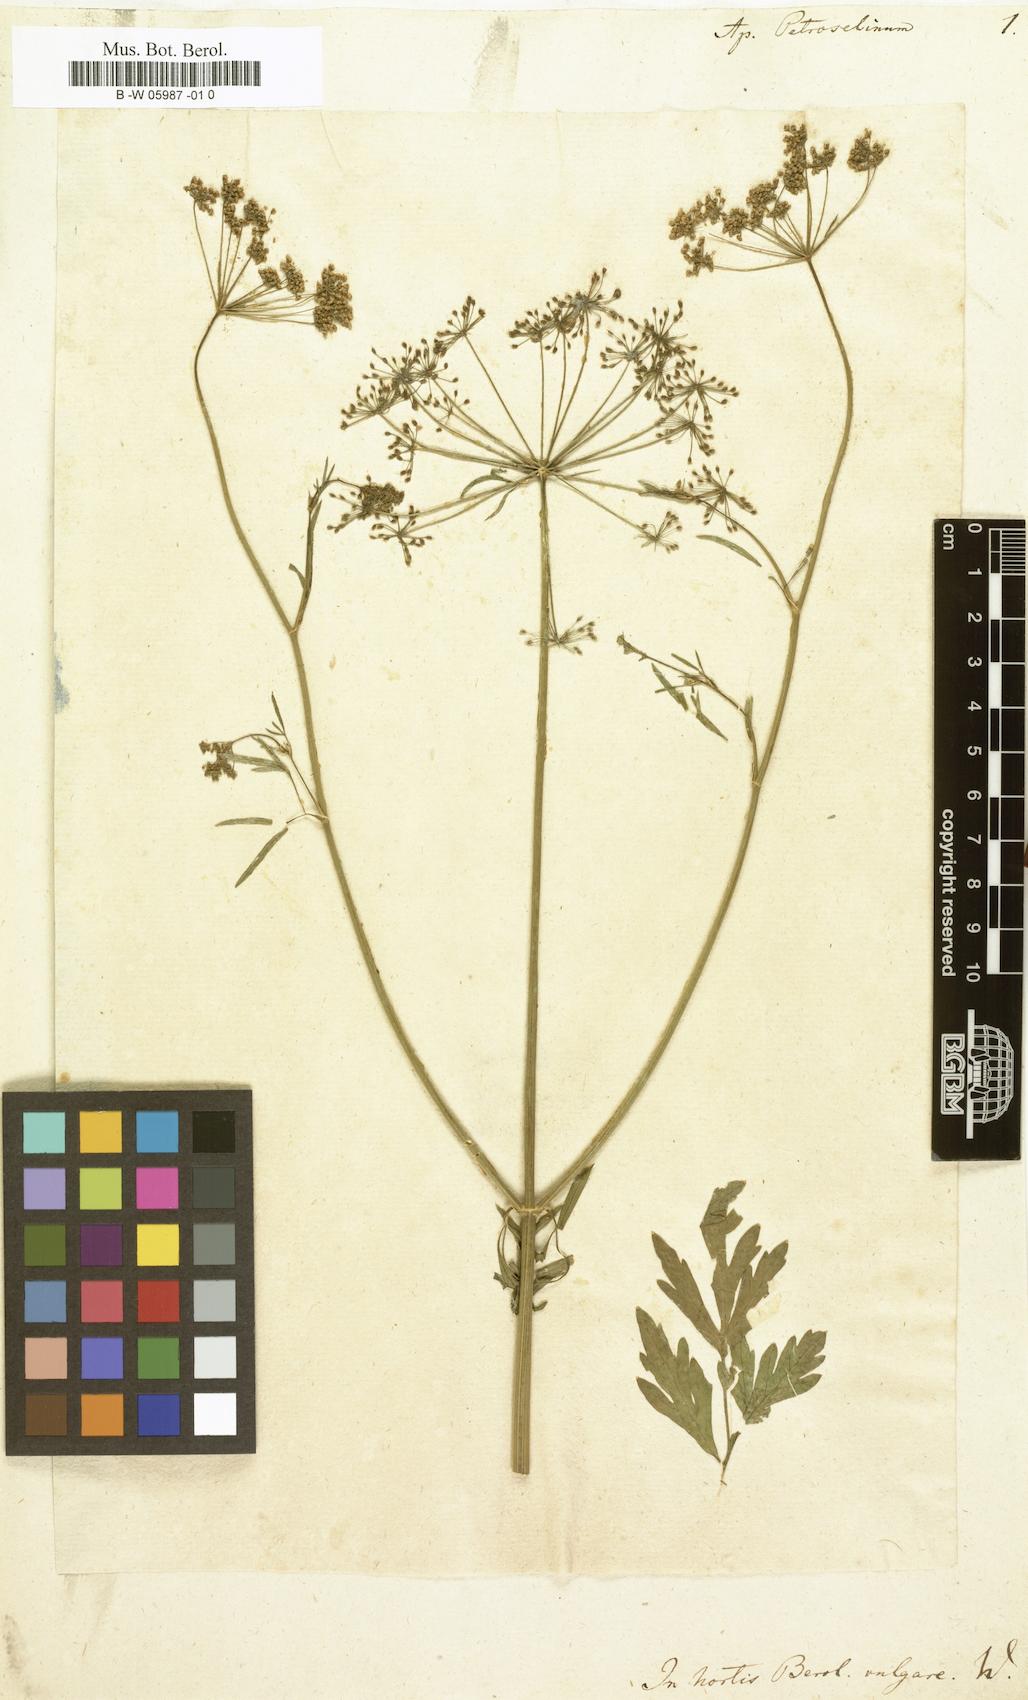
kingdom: Plantae
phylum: Tracheophyta
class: Magnoliopsida
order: Apiales
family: Apiaceae
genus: Petroselinum
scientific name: Petroselinum crispum
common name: Parsley
